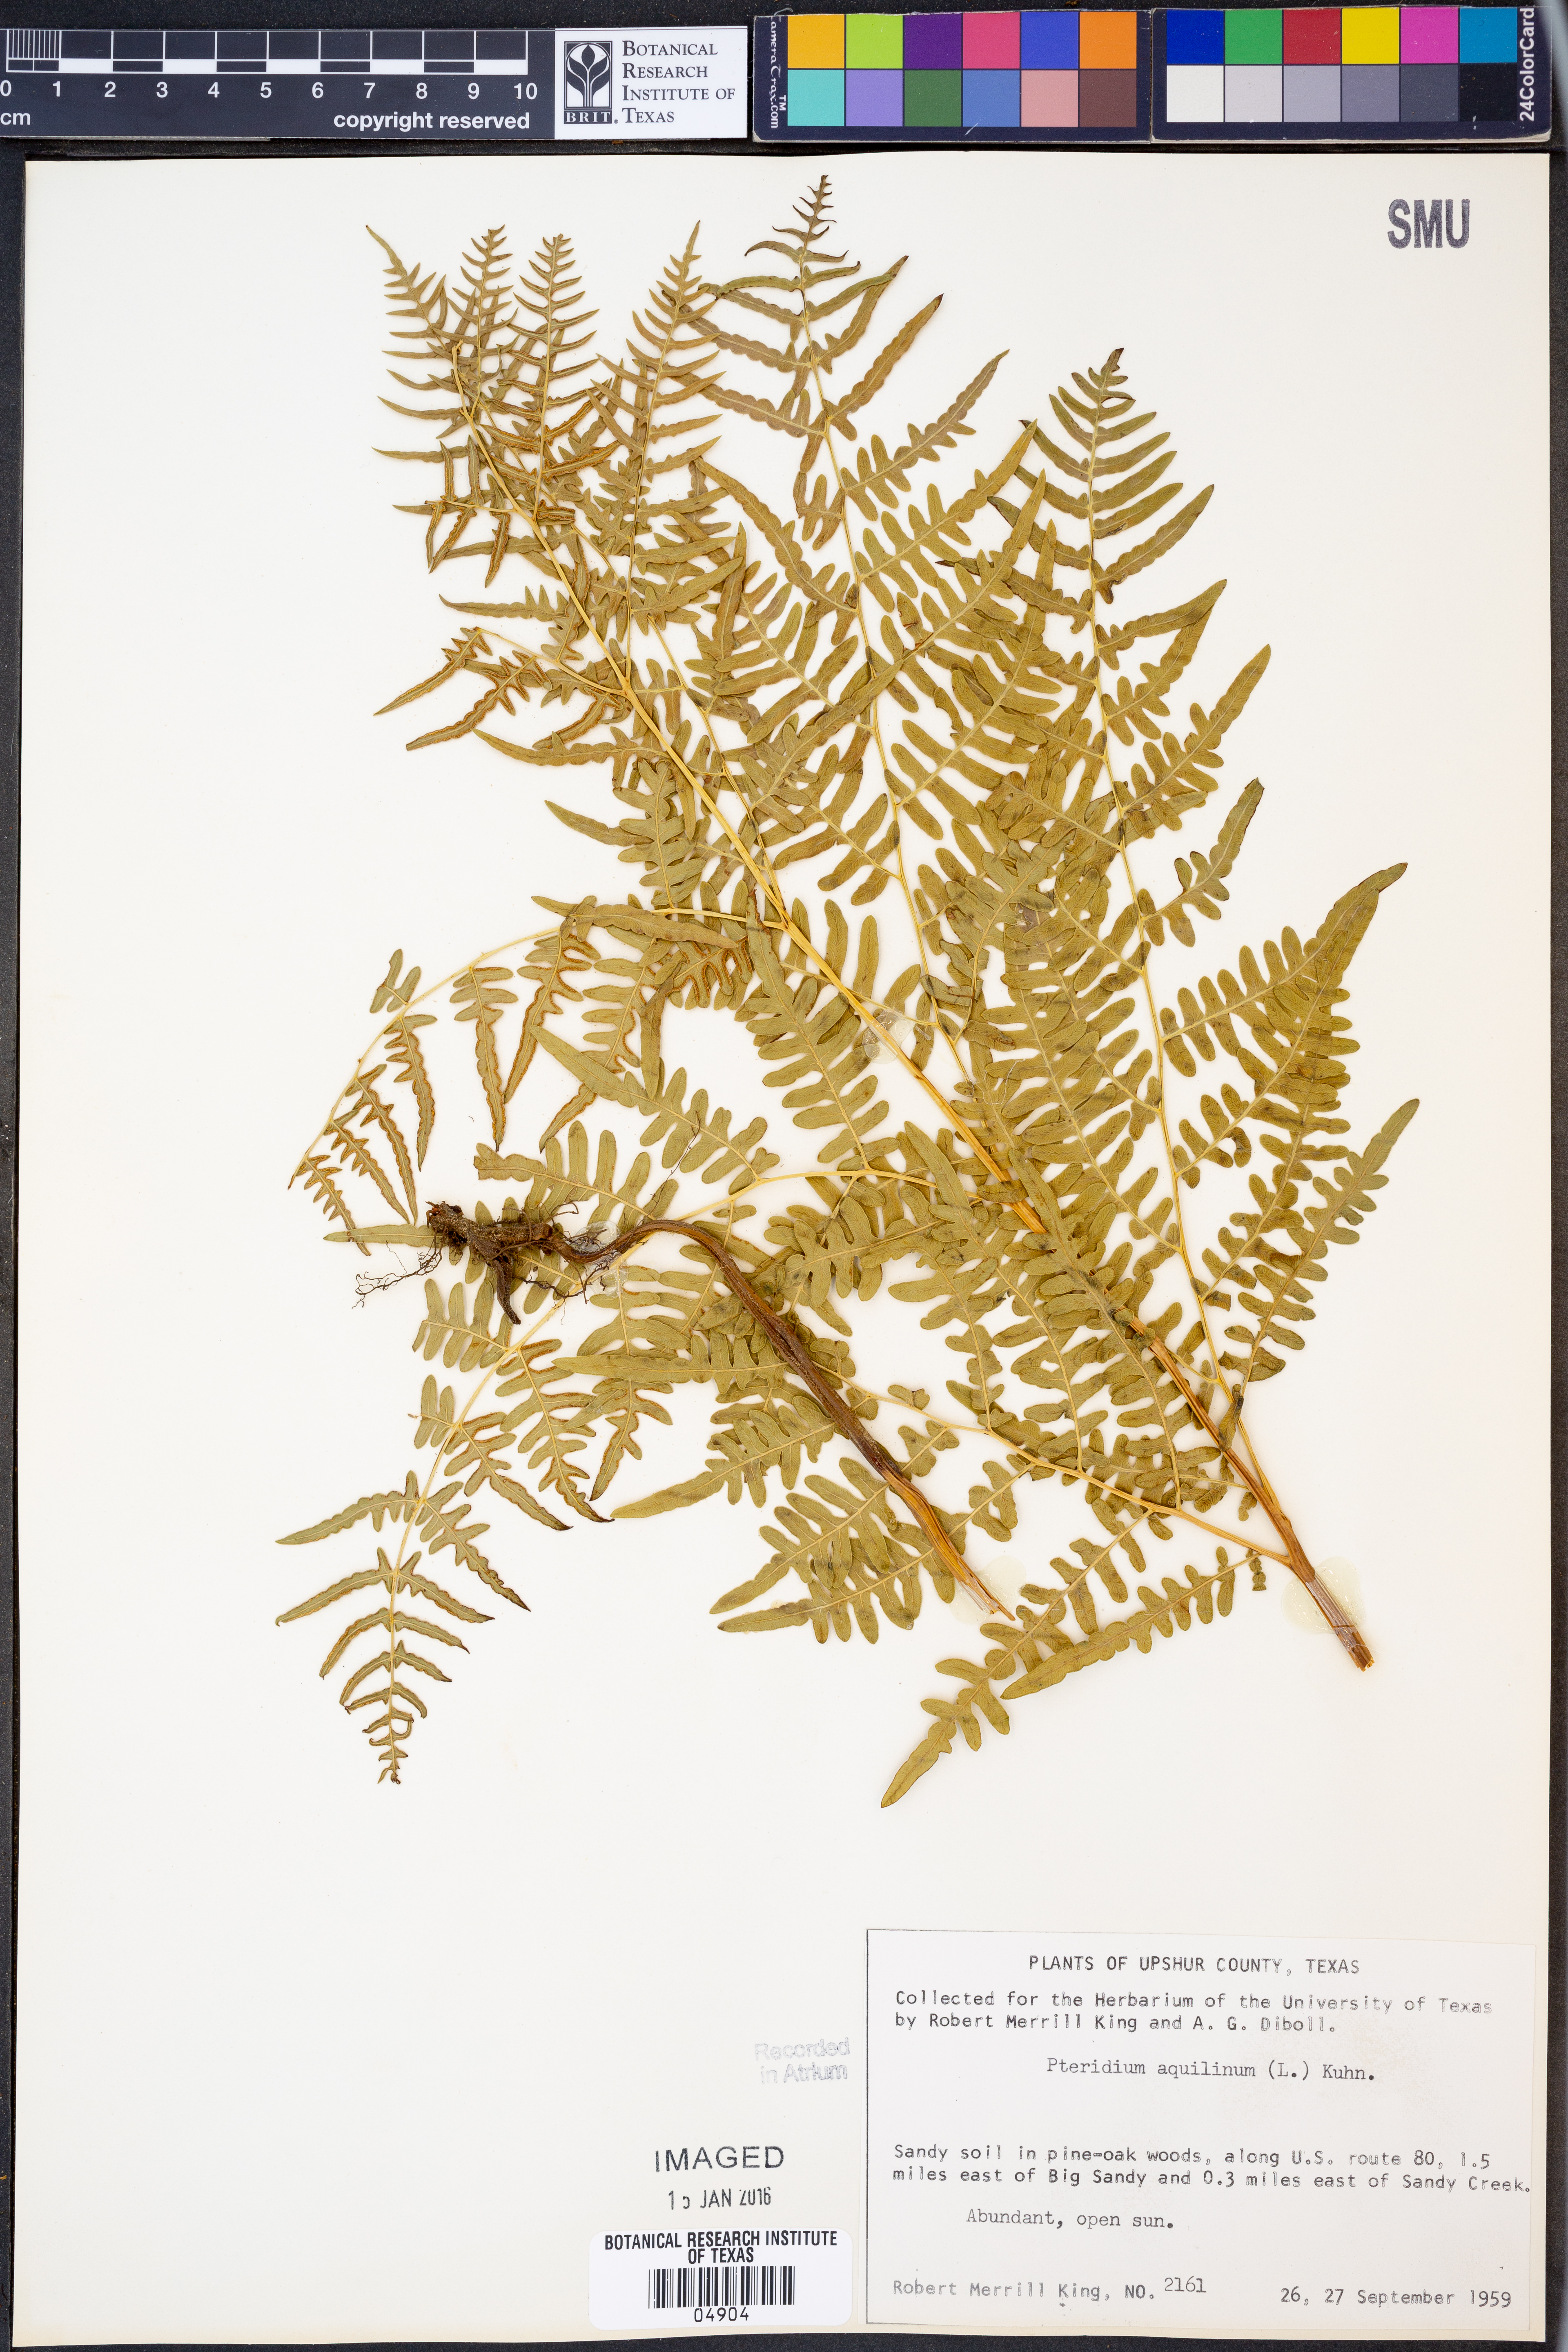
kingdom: Plantae
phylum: Tracheophyta
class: Polypodiopsida
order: Polypodiales
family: Dennstaedtiaceae
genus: Pteridium
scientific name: Pteridium aquilinum
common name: Bracken
